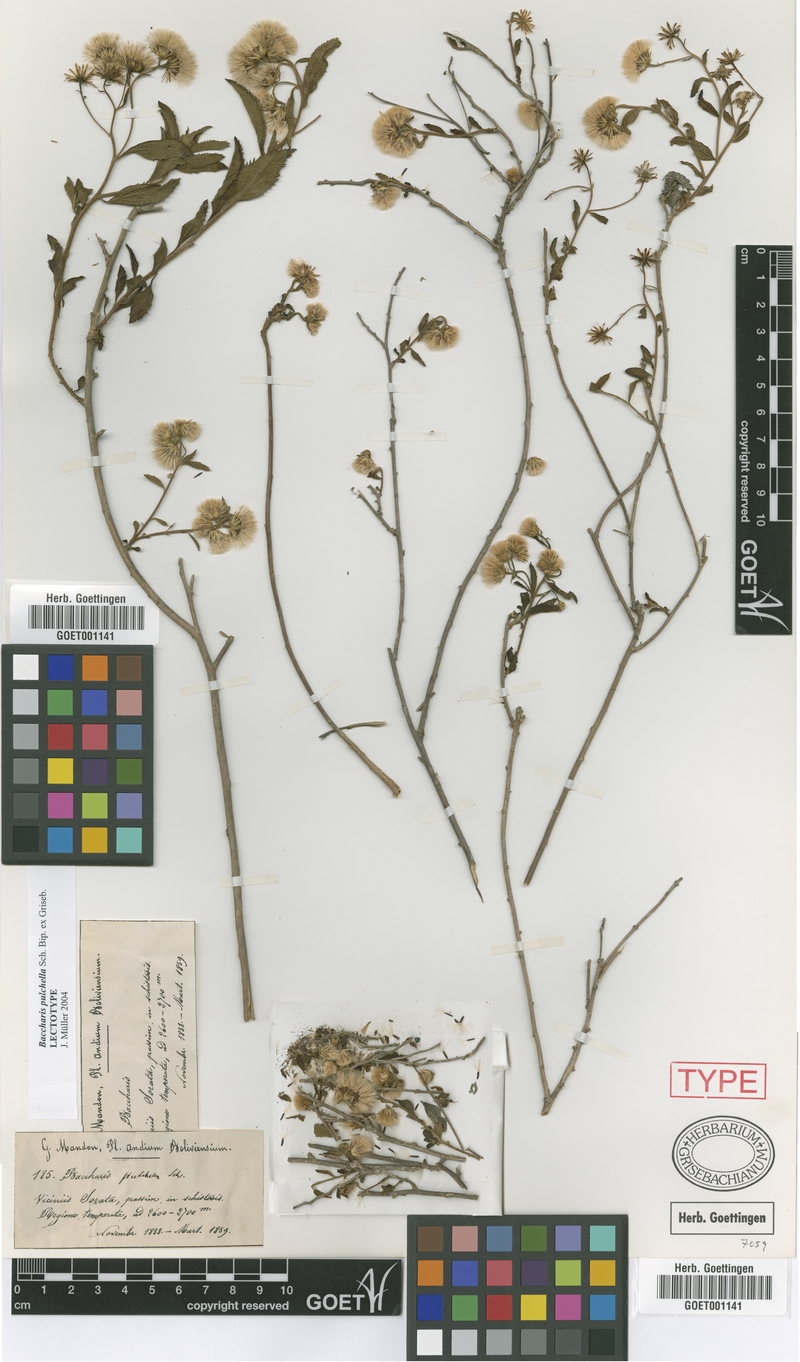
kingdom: Plantae
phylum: Tracheophyta
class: Magnoliopsida
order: Asterales
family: Asteraceae
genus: Baccharis
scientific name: Baccharis pulchella
